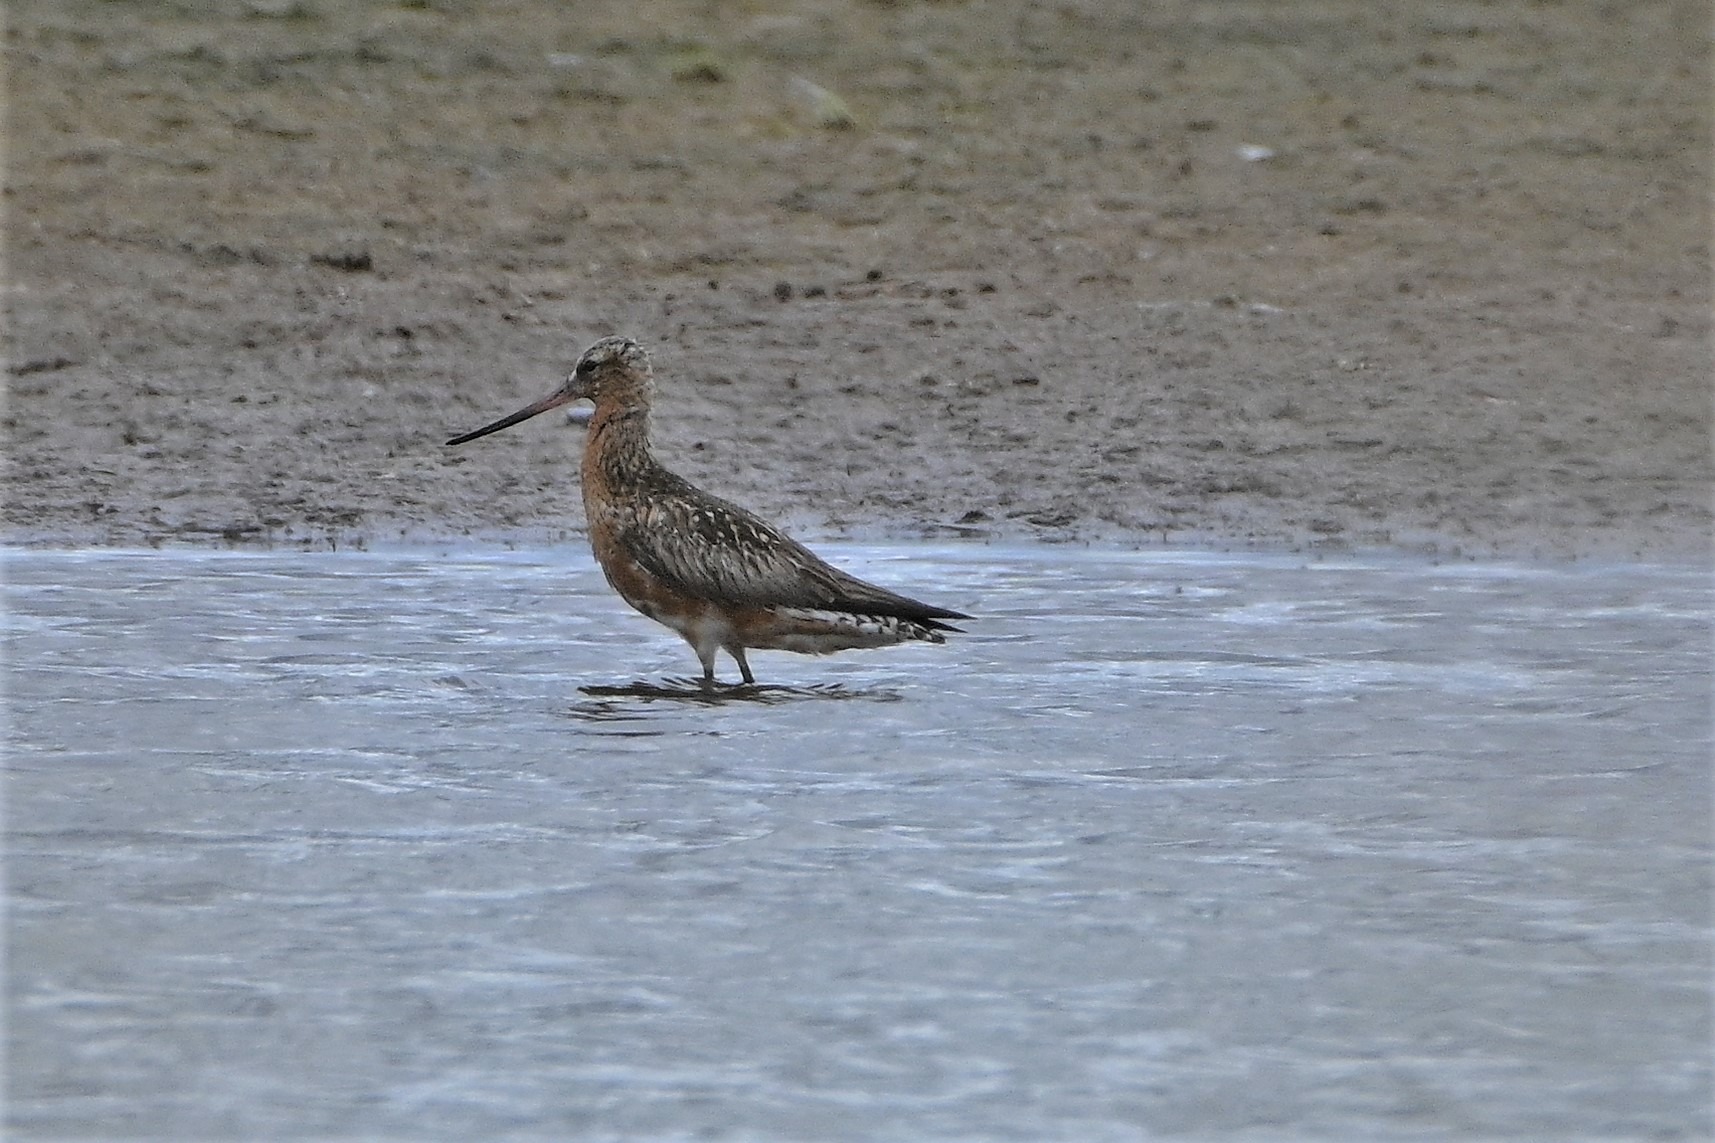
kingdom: Animalia
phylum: Chordata
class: Aves
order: Charadriiformes
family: Scolopacidae
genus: Limosa
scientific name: Limosa lapponica
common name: Lille kobbersneppe
